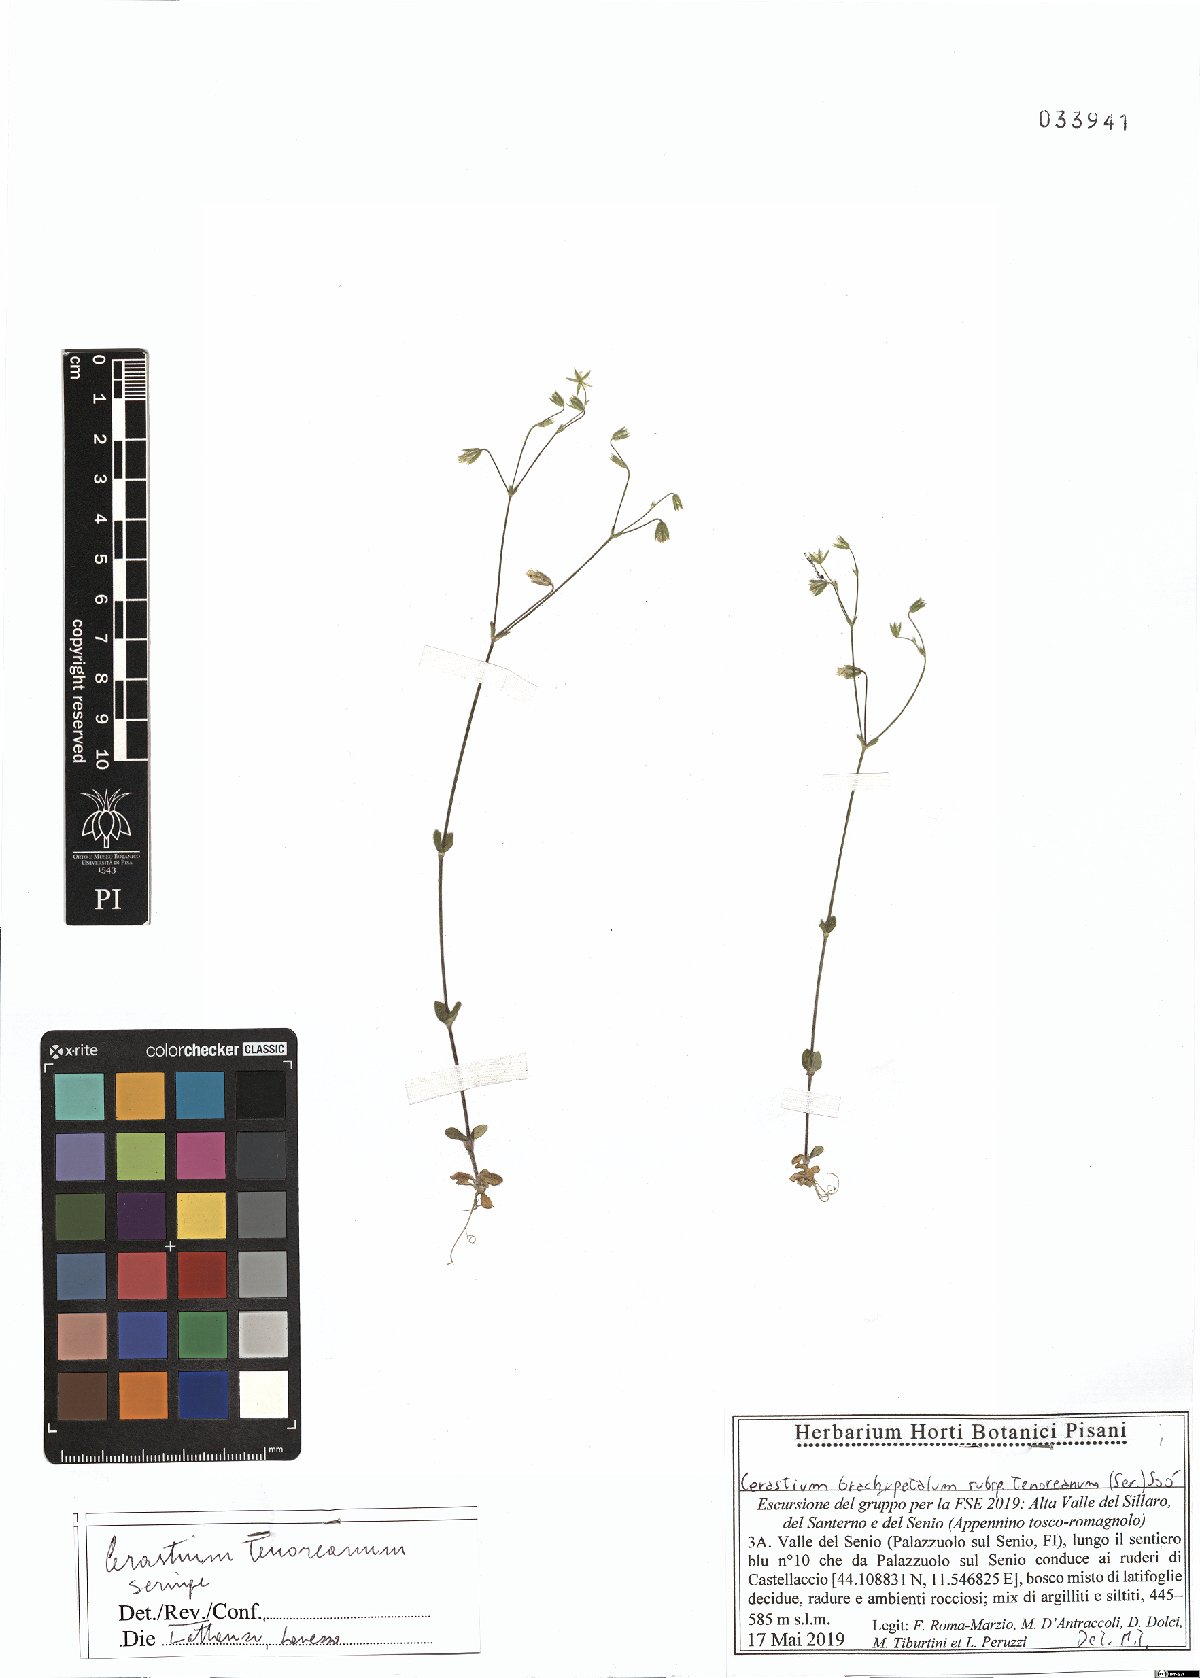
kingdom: Plantae
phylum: Tracheophyta
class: Magnoliopsida
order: Caryophyllales
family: Caryophyllaceae
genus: Cerastium
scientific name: Cerastium tenoreanum
